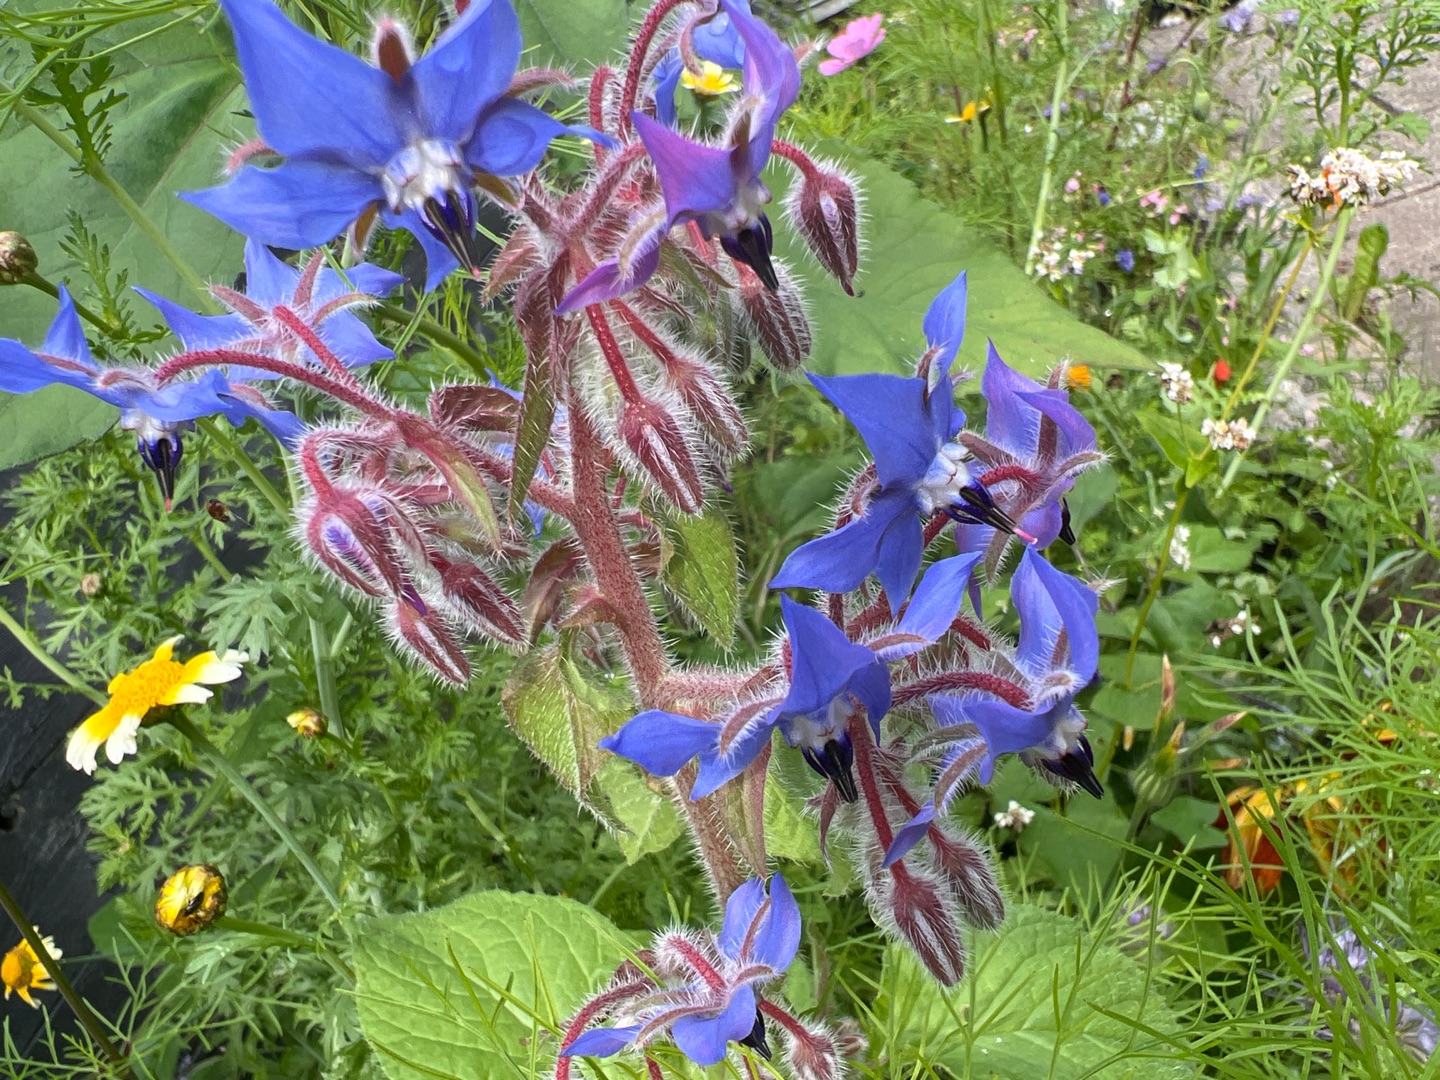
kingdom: Plantae
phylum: Tracheophyta
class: Magnoliopsida
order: Boraginales
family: Boraginaceae
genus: Borago
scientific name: Borago officinalis
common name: Hjulkrone
